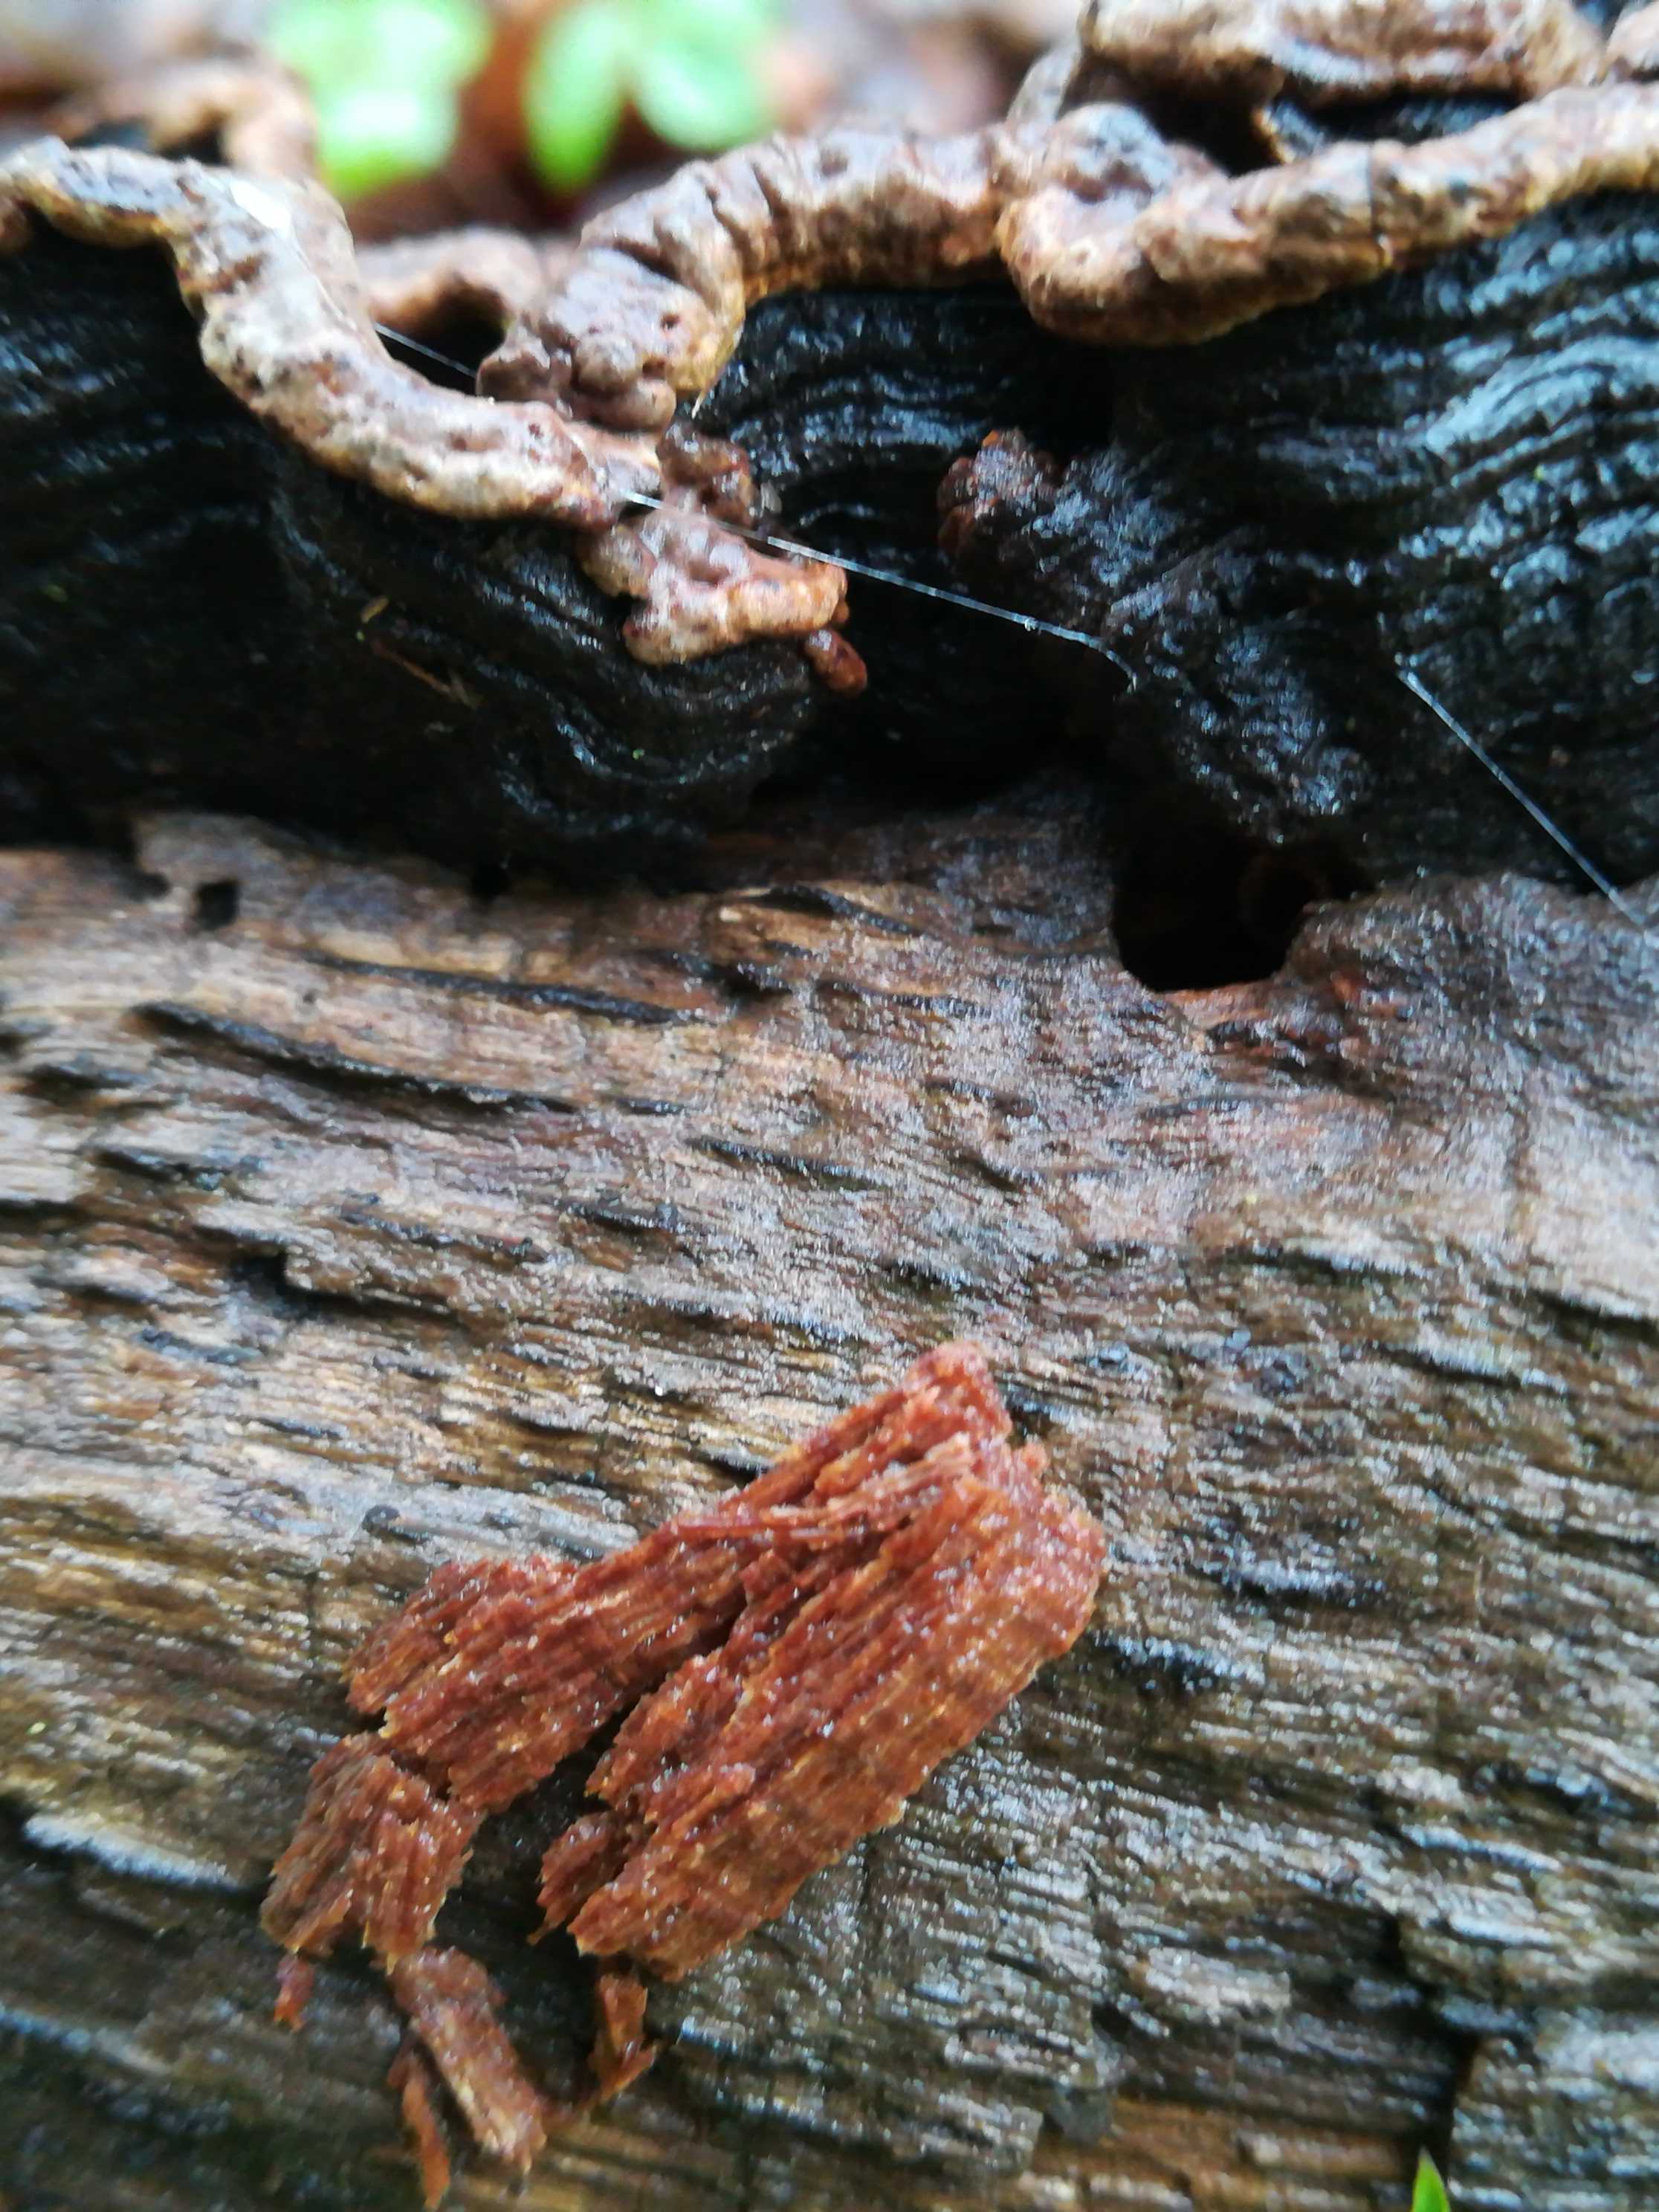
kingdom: Fungi
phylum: Basidiomycota
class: Agaricomycetes
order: Hymenochaetales
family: Hymenochaetaceae
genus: Hymenochaete
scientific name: Hymenochaete rubiginosa
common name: stiv ruslædersvamp
